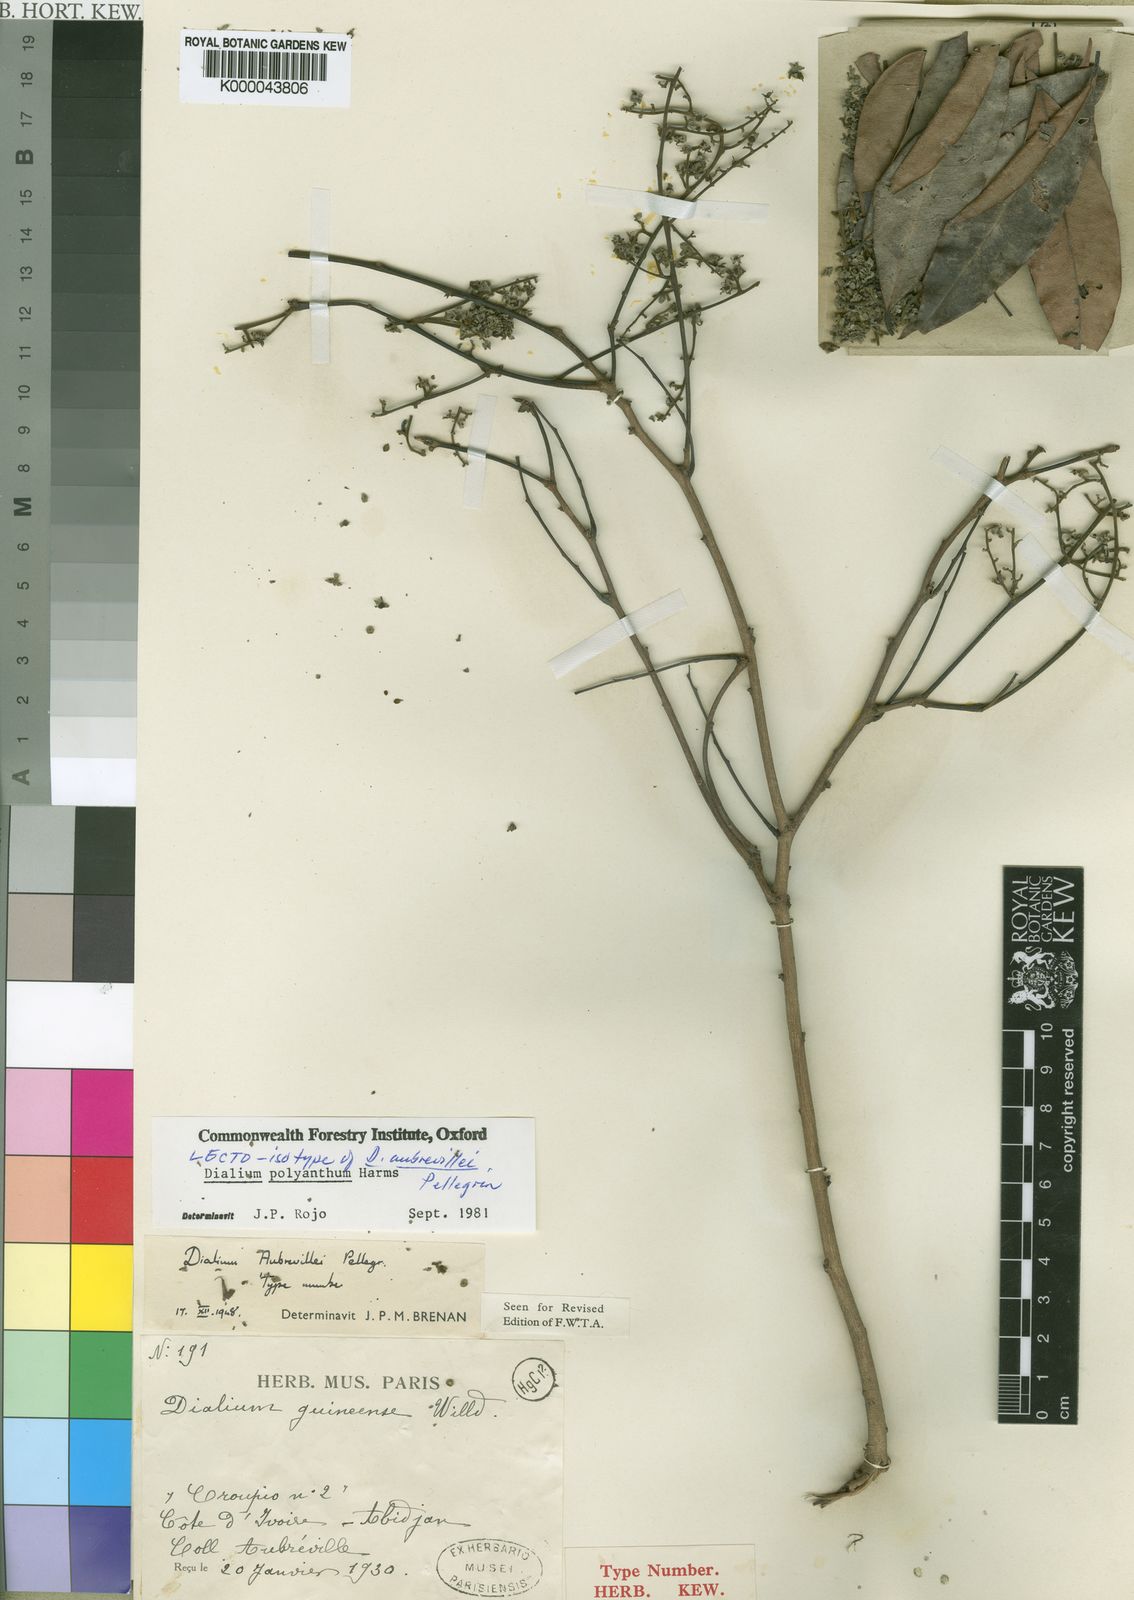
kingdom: Plantae
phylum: Tracheophyta
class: Magnoliopsida
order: Fabales
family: Fabaceae
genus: Dialium
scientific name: Dialium polyanthum
